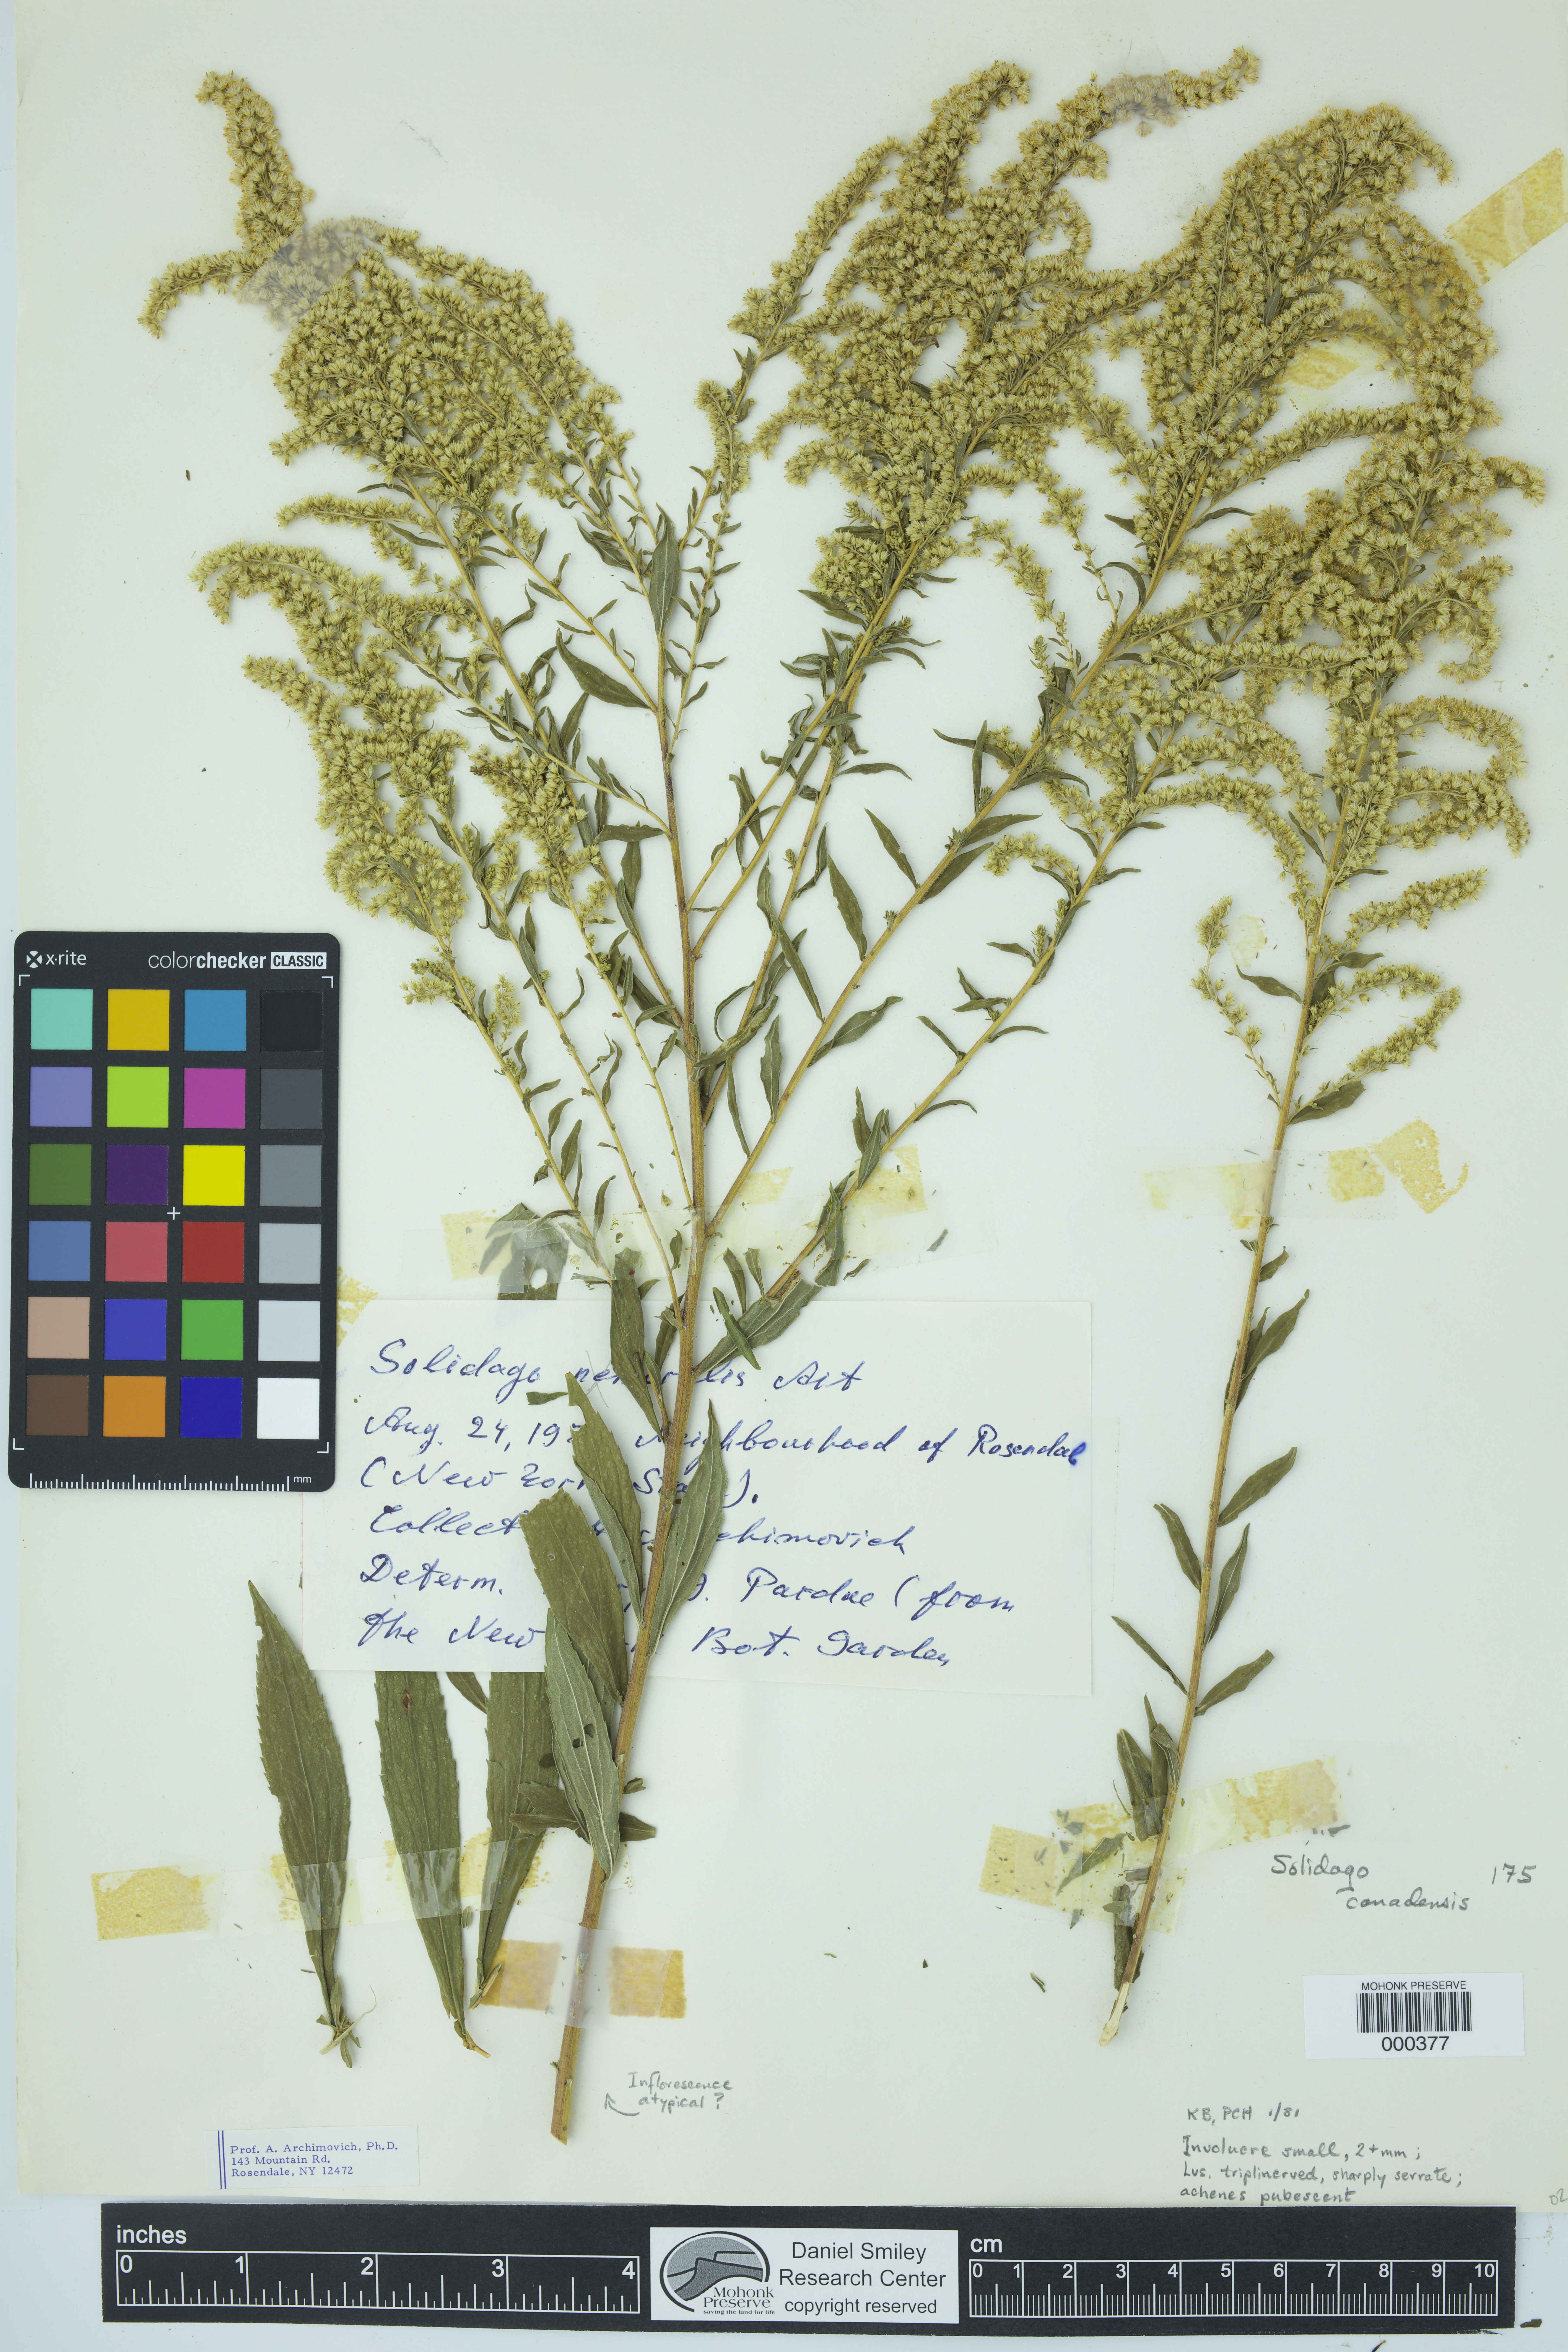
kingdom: Plantae
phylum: Tracheophyta
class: Magnoliopsida
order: Asterales
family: Asteraceae
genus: Solidago
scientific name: Solidago canadensis
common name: Canada goldenrod
